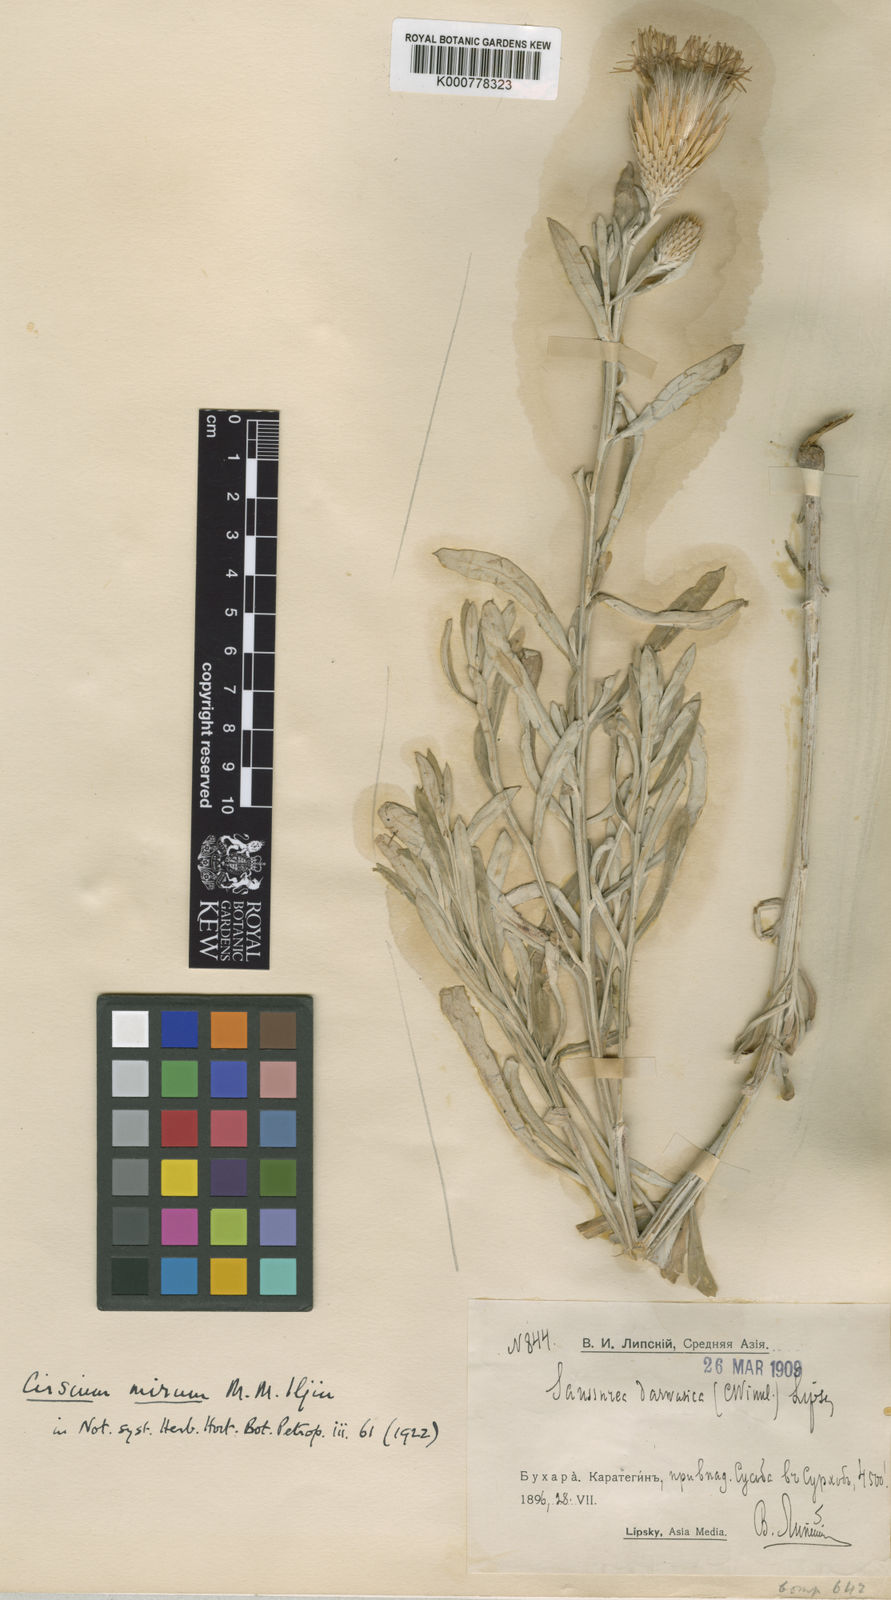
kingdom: Plantae
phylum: Tracheophyta
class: Magnoliopsida
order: Asterales
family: Asteraceae
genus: Ancathia
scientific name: Ancathia
